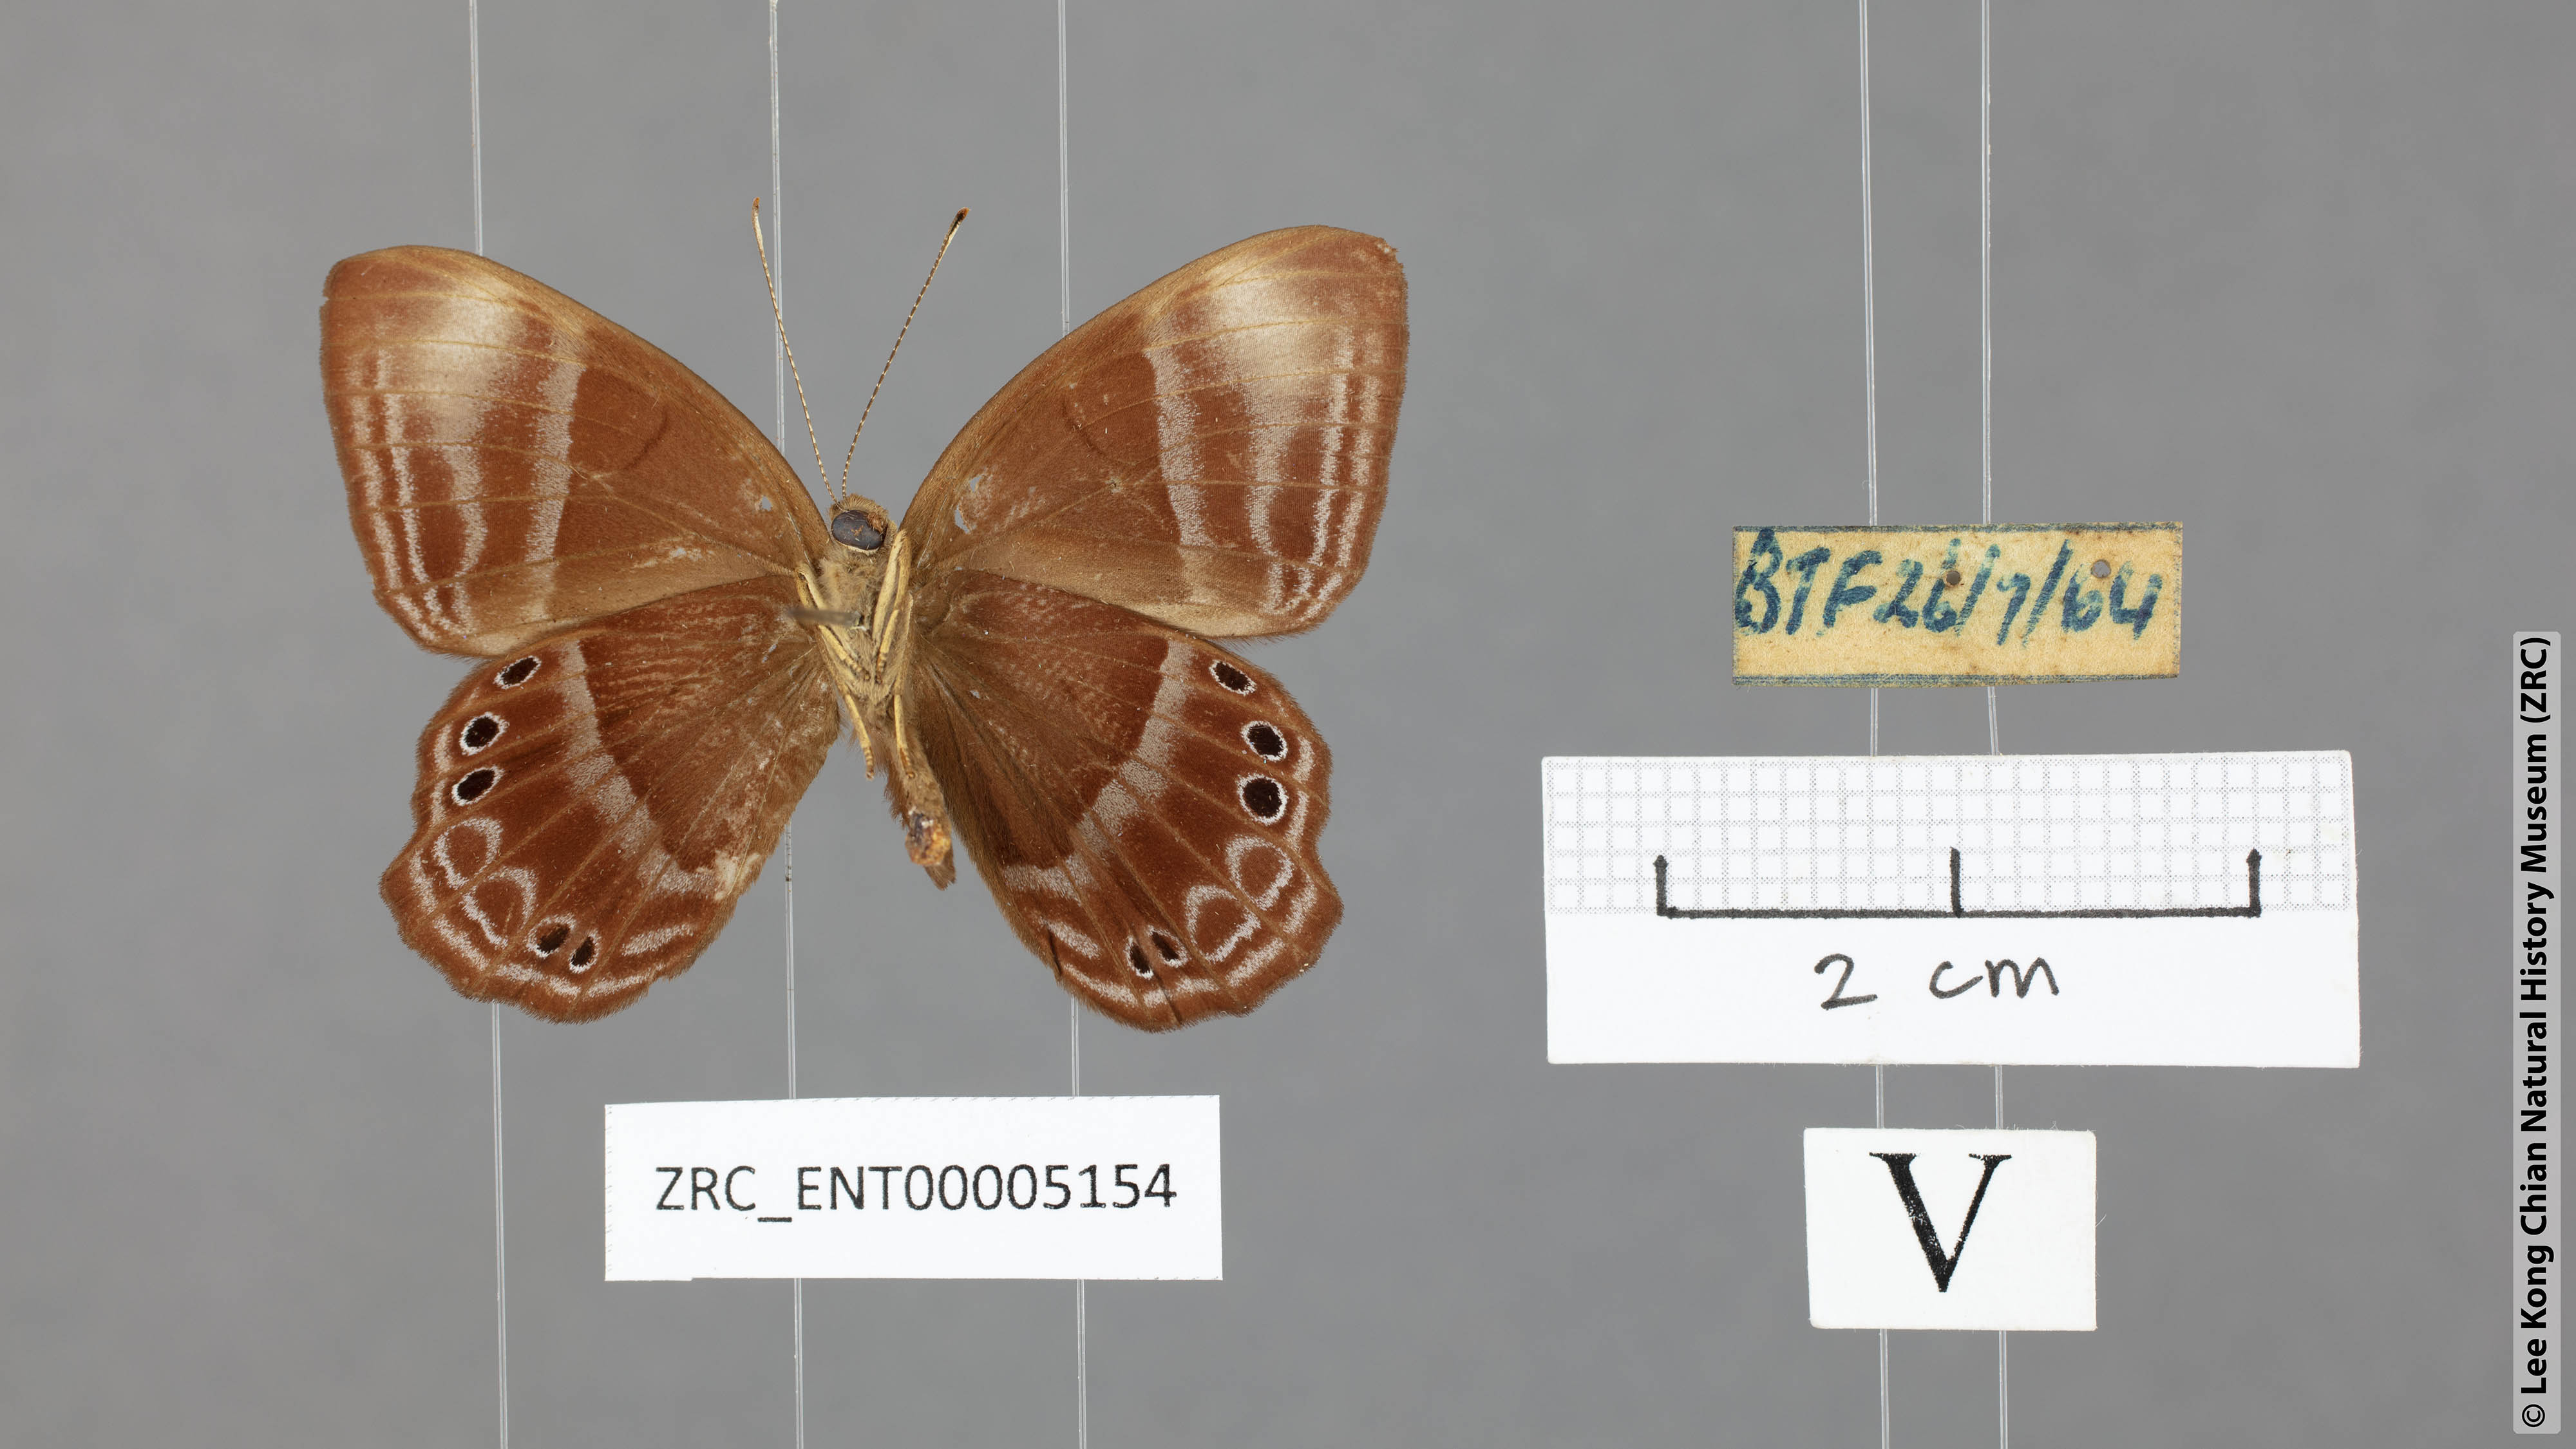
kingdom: Animalia
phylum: Arthropoda
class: Insecta
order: Lepidoptera
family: Lycaenidae
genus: Abisara
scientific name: Abisara geza
